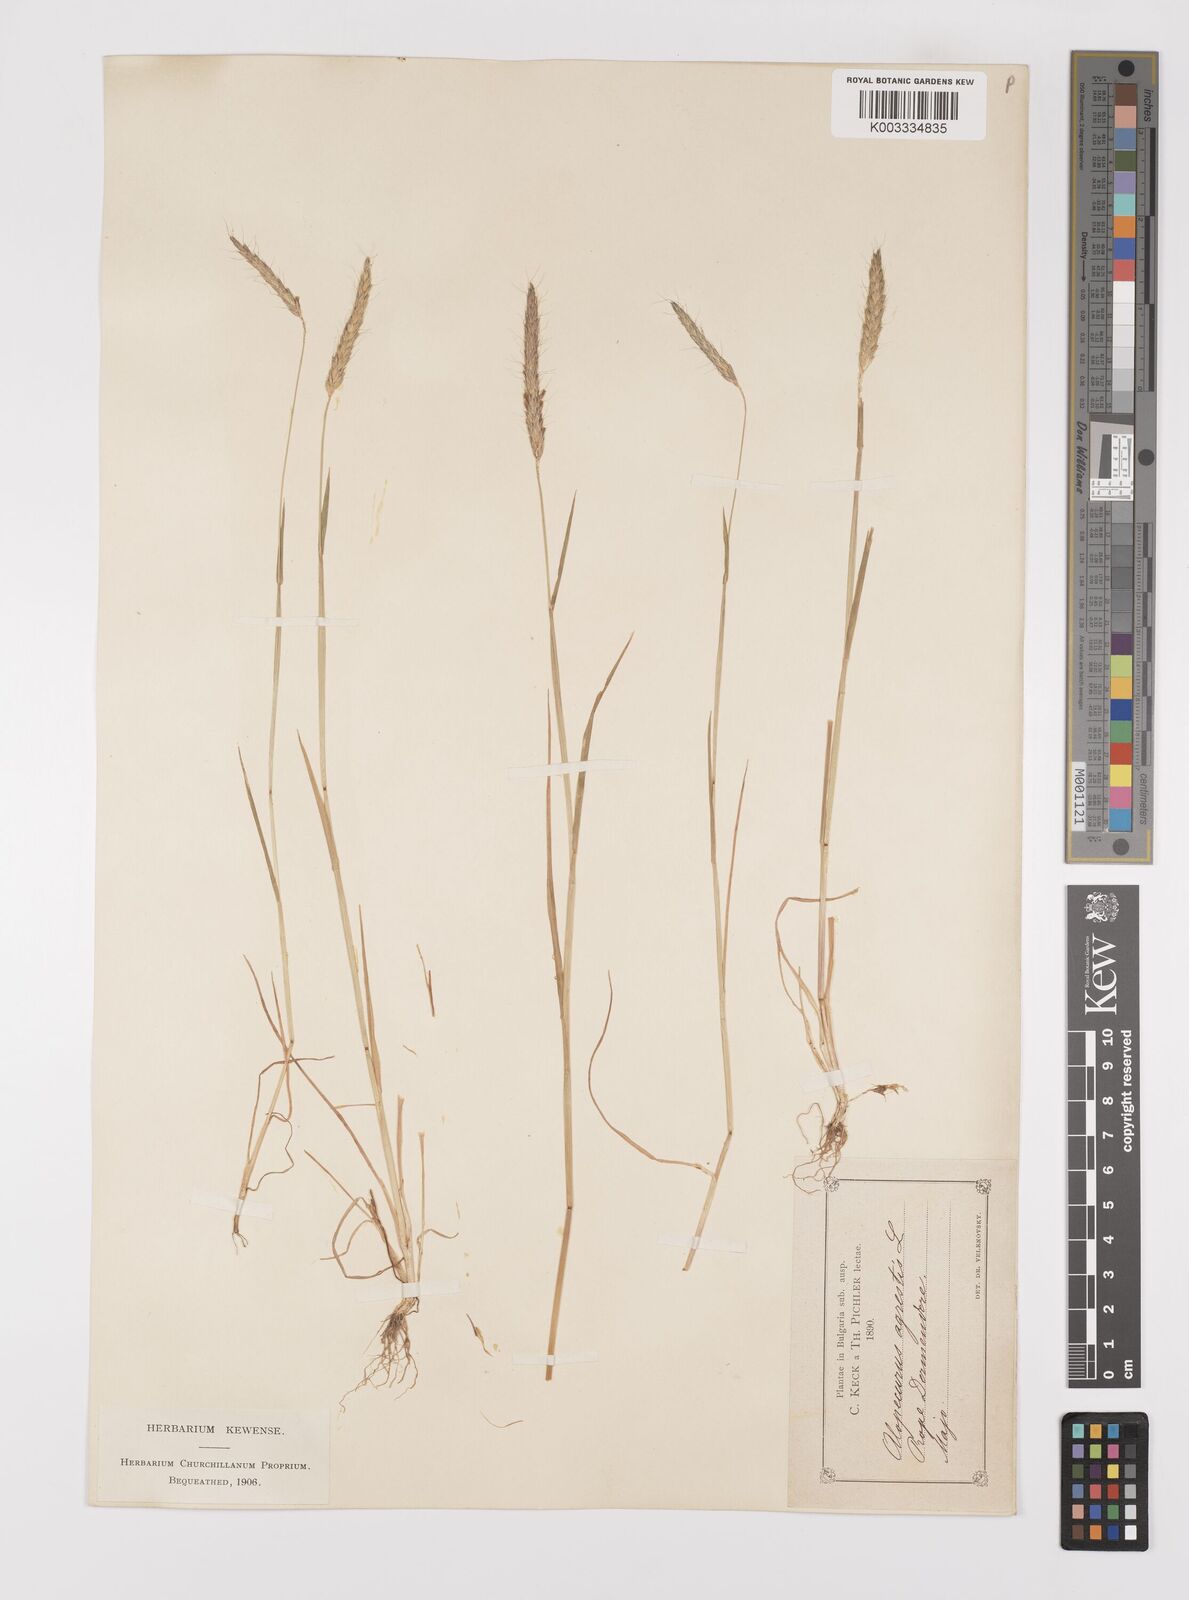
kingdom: Plantae
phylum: Tracheophyta
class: Liliopsida
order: Poales
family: Poaceae
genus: Alopecurus
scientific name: Alopecurus myosuroides
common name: Black-grass
